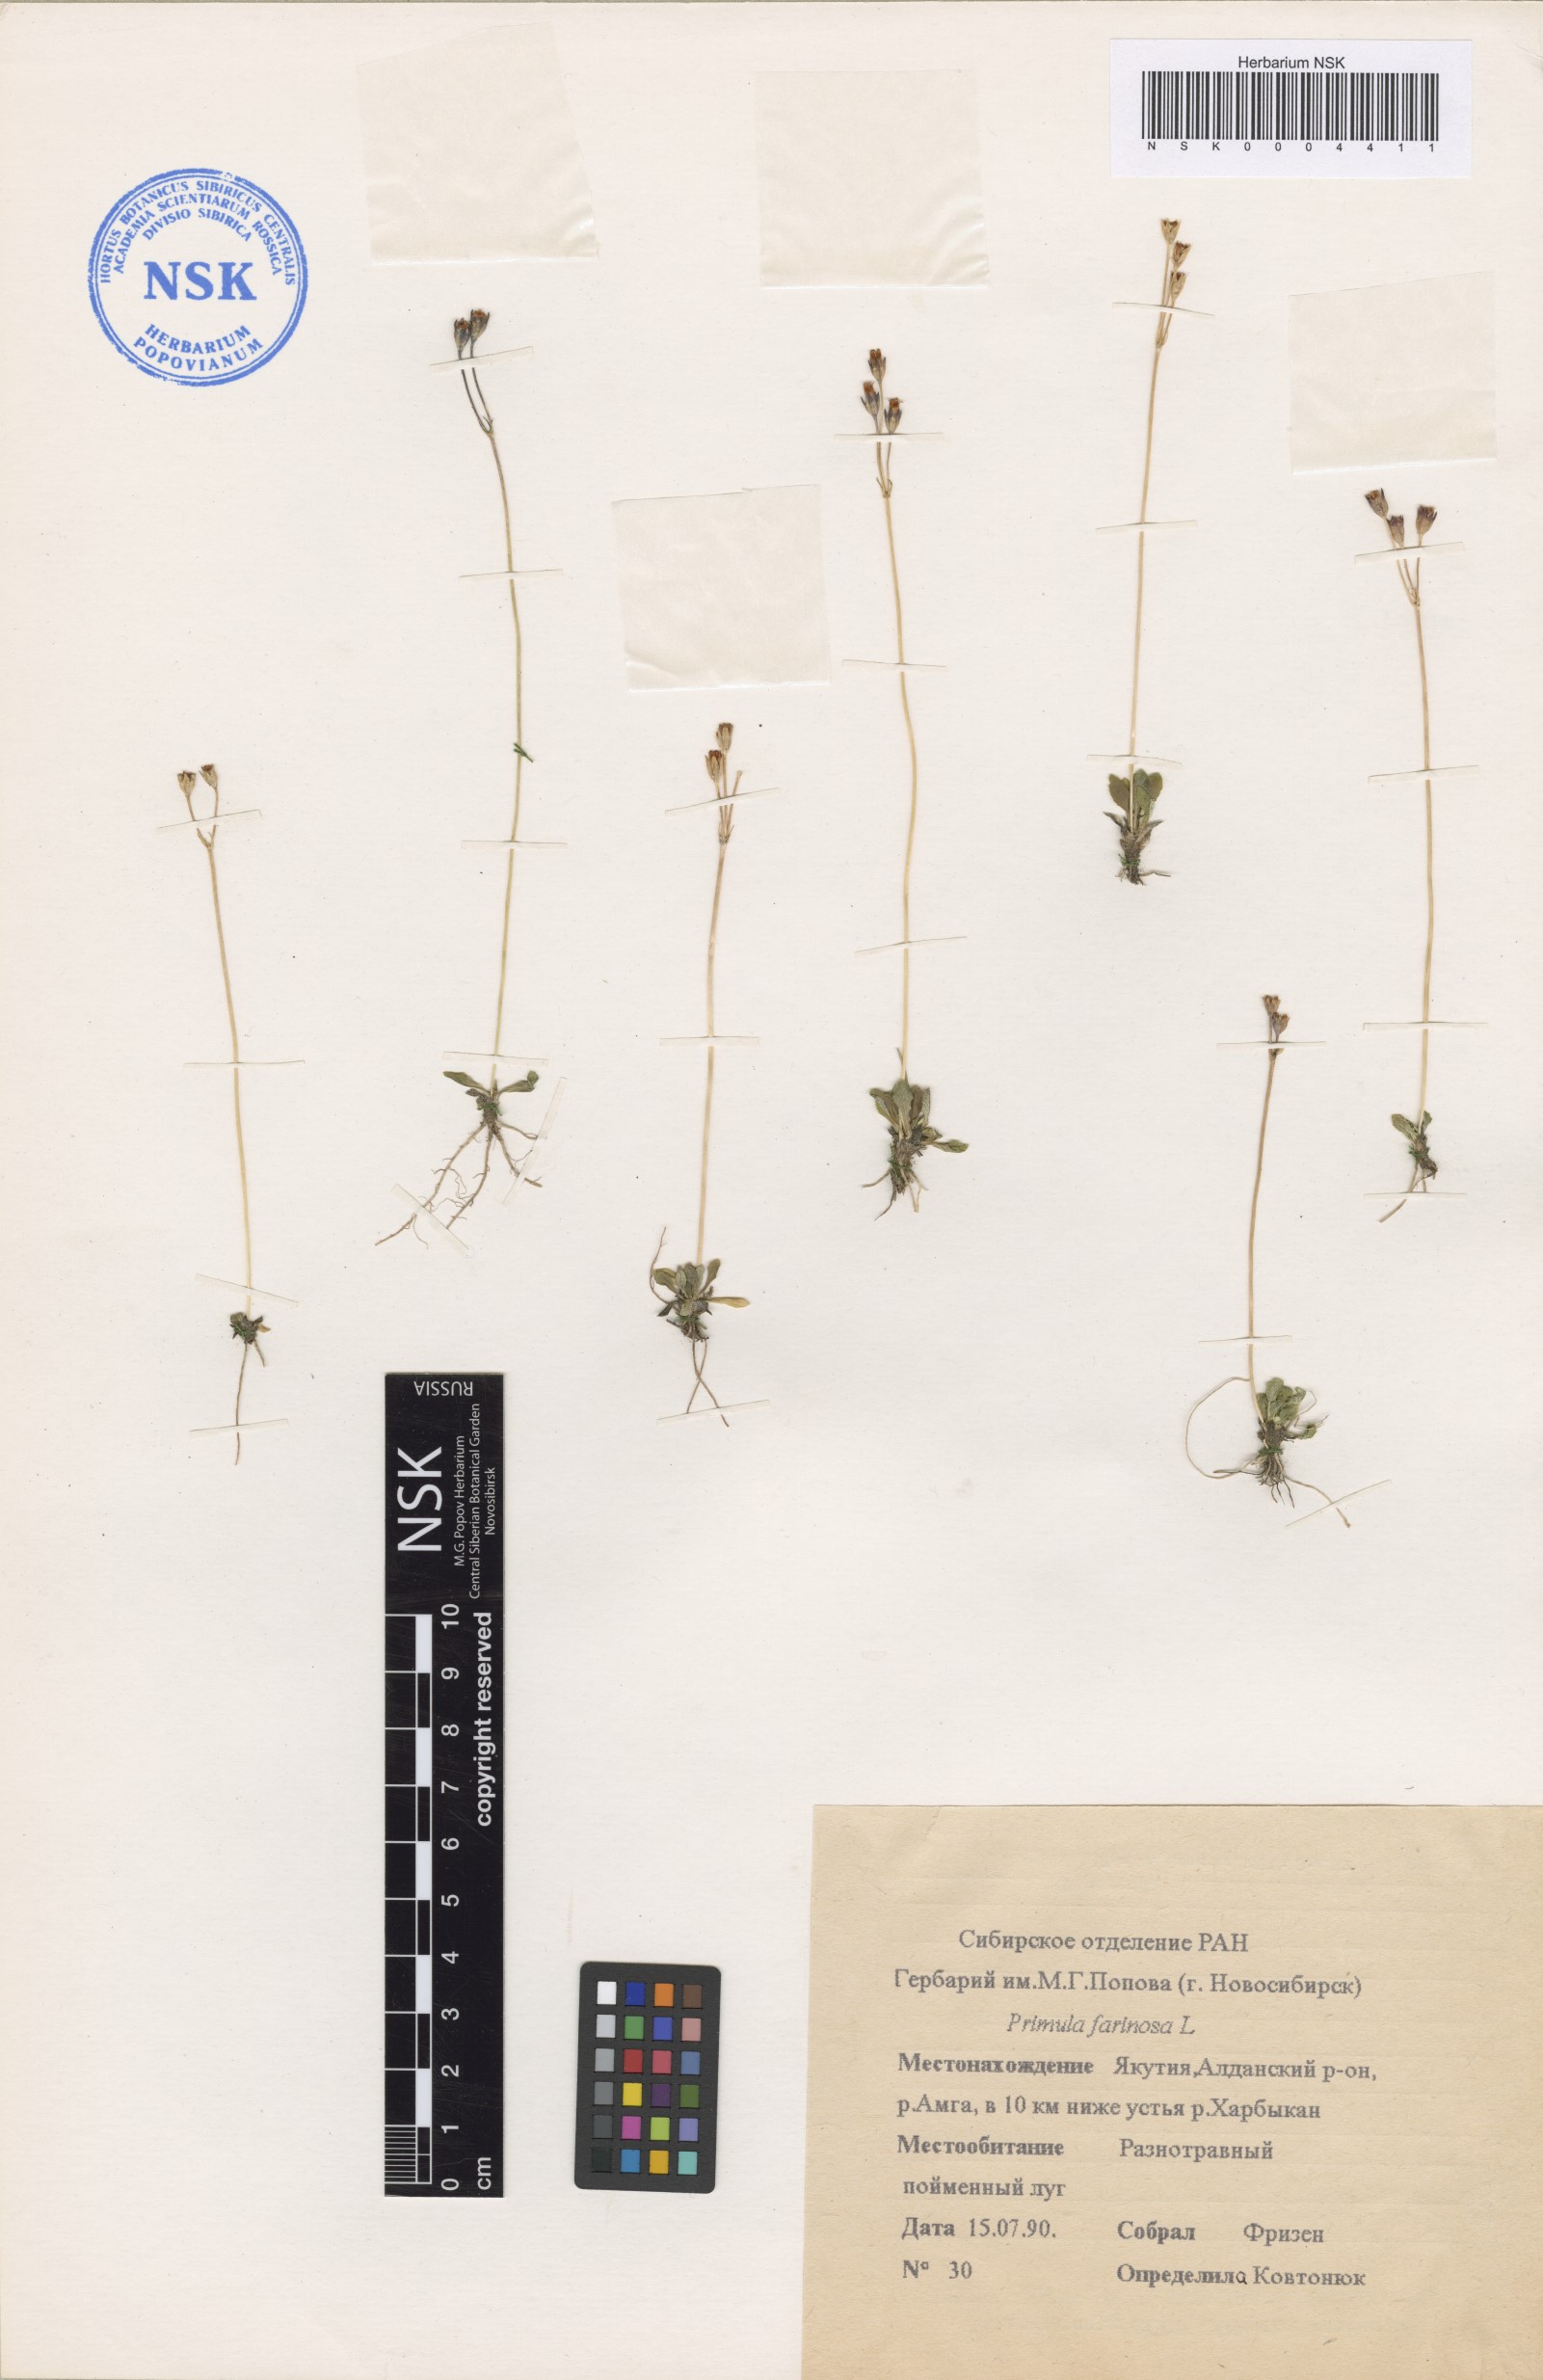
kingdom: Plantae
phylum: Tracheophyta
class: Magnoliopsida
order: Ericales
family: Primulaceae
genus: Primula
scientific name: Primula farinosa
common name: Bird's-eye primrose
